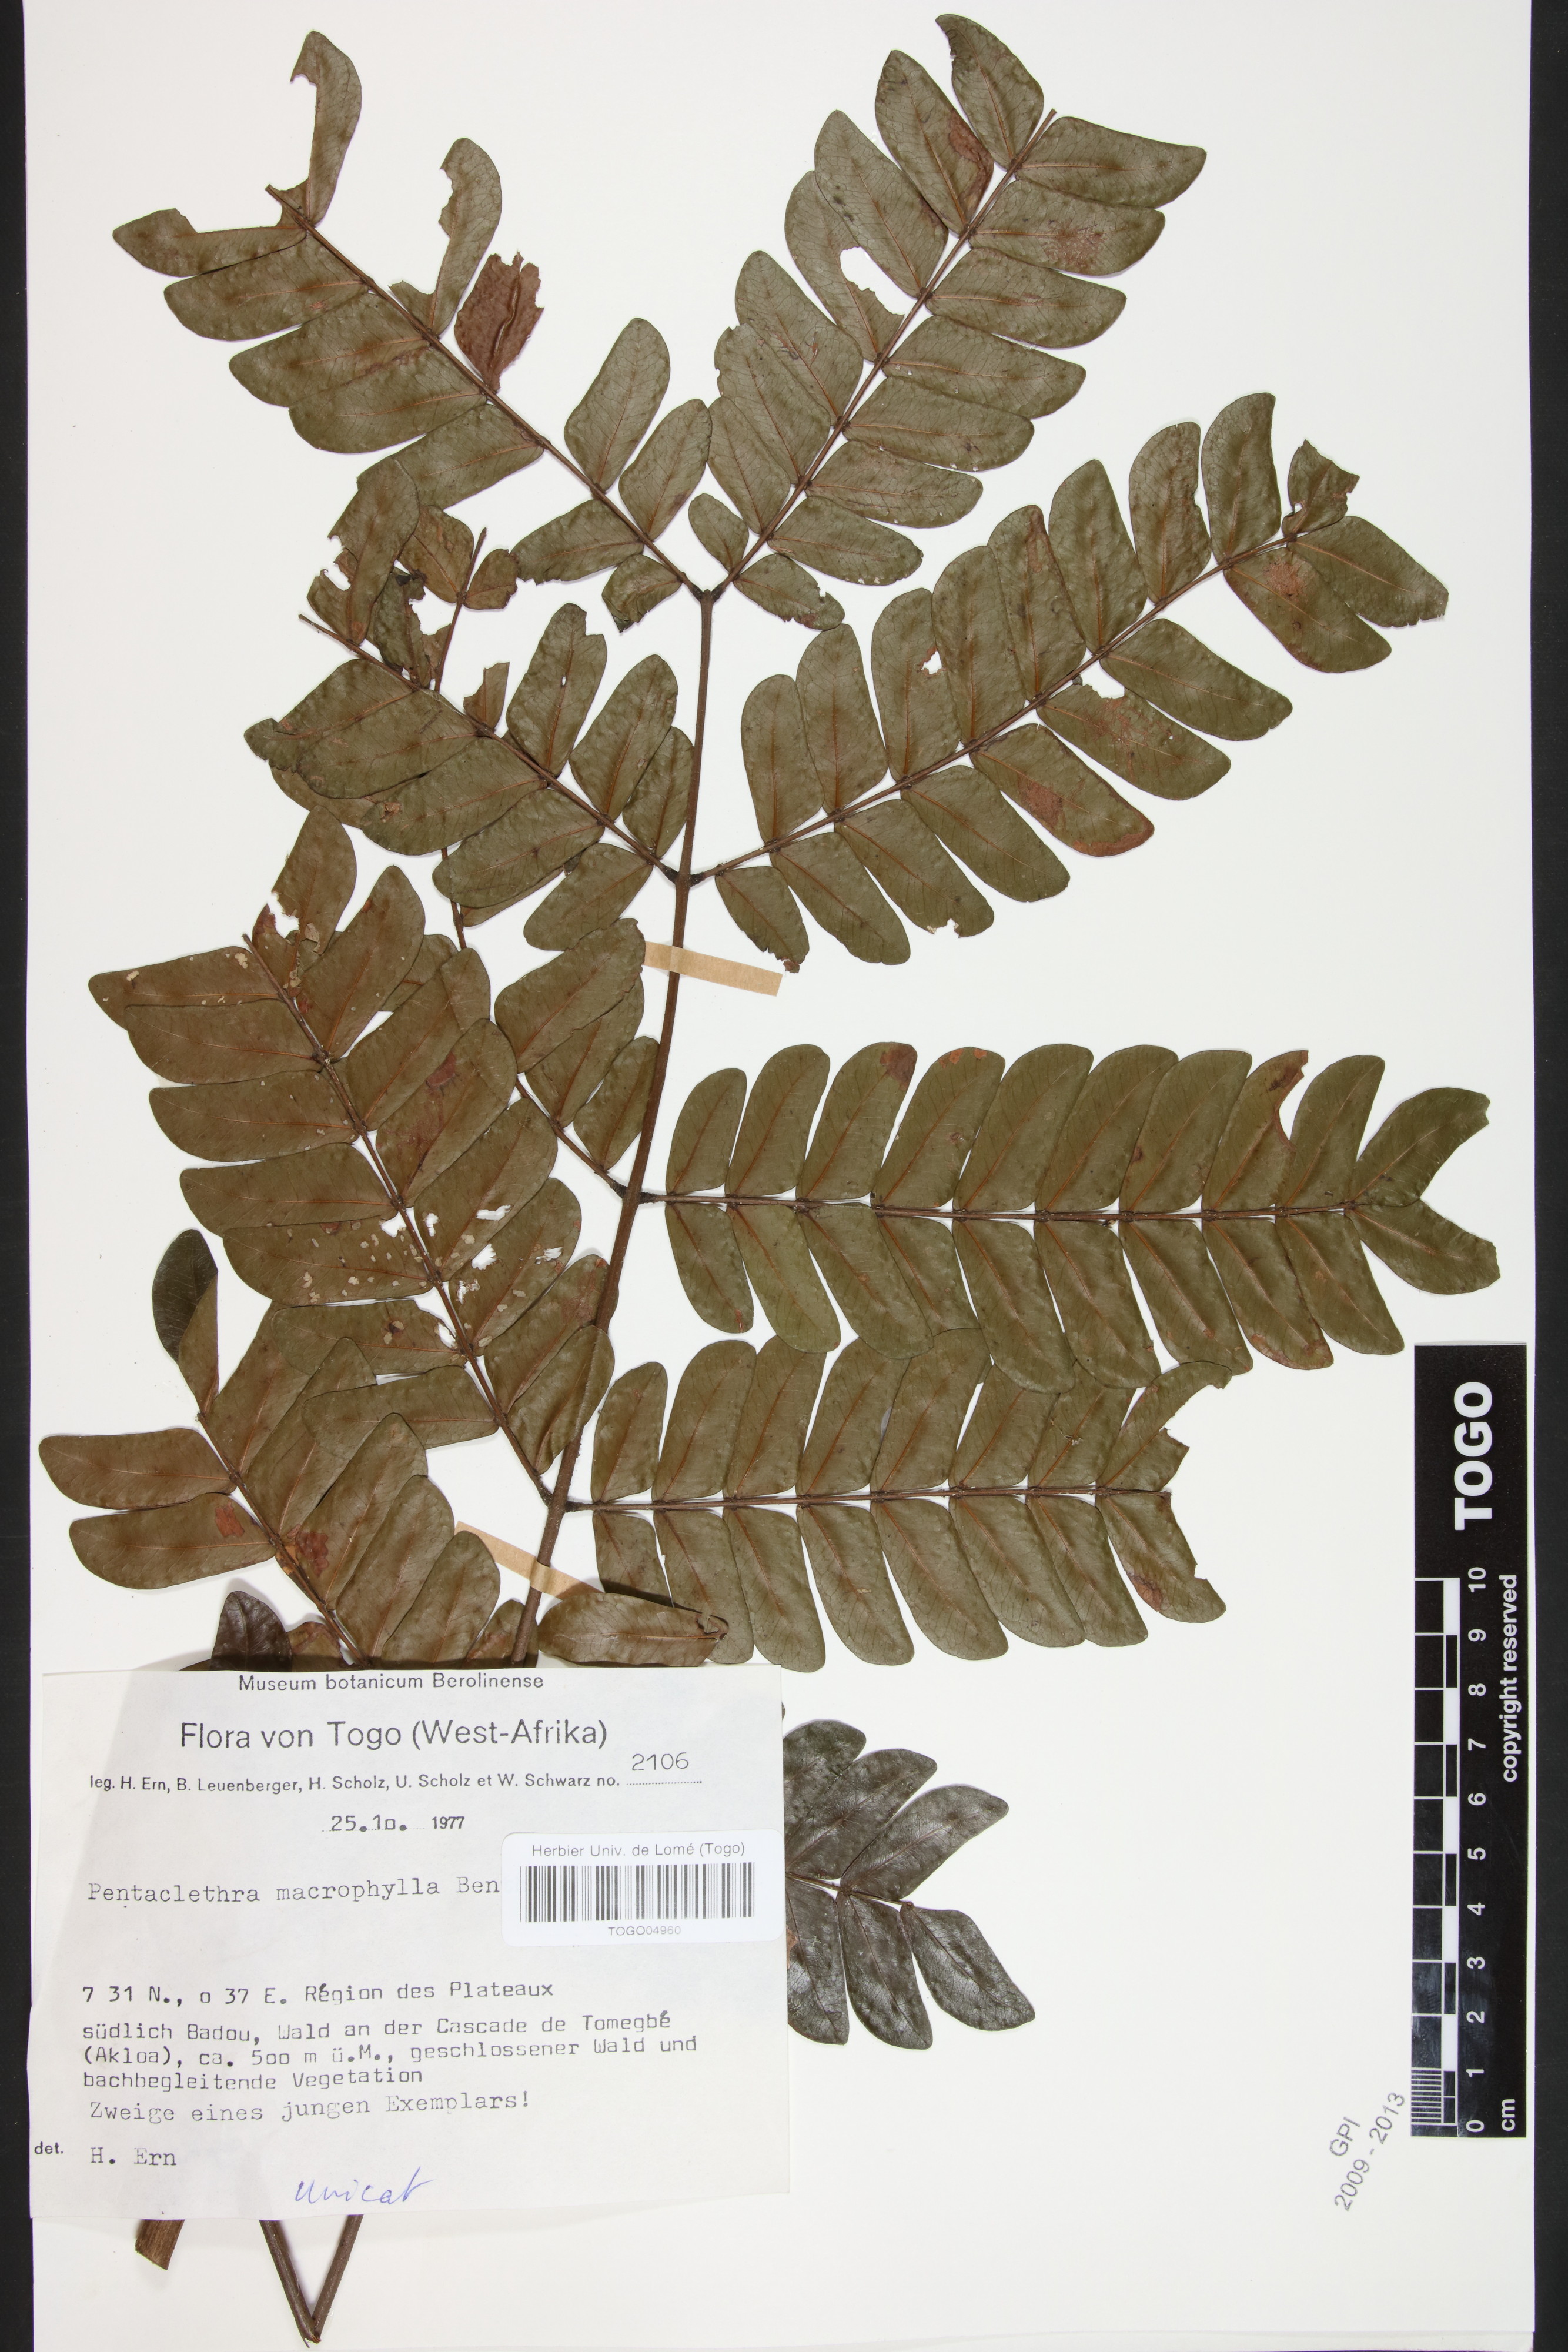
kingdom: Plantae
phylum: Tracheophyta
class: Magnoliopsida
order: Fabales
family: Fabaceae
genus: Pentaclethra
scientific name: Pentaclethra macrophylla
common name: African oil bean
